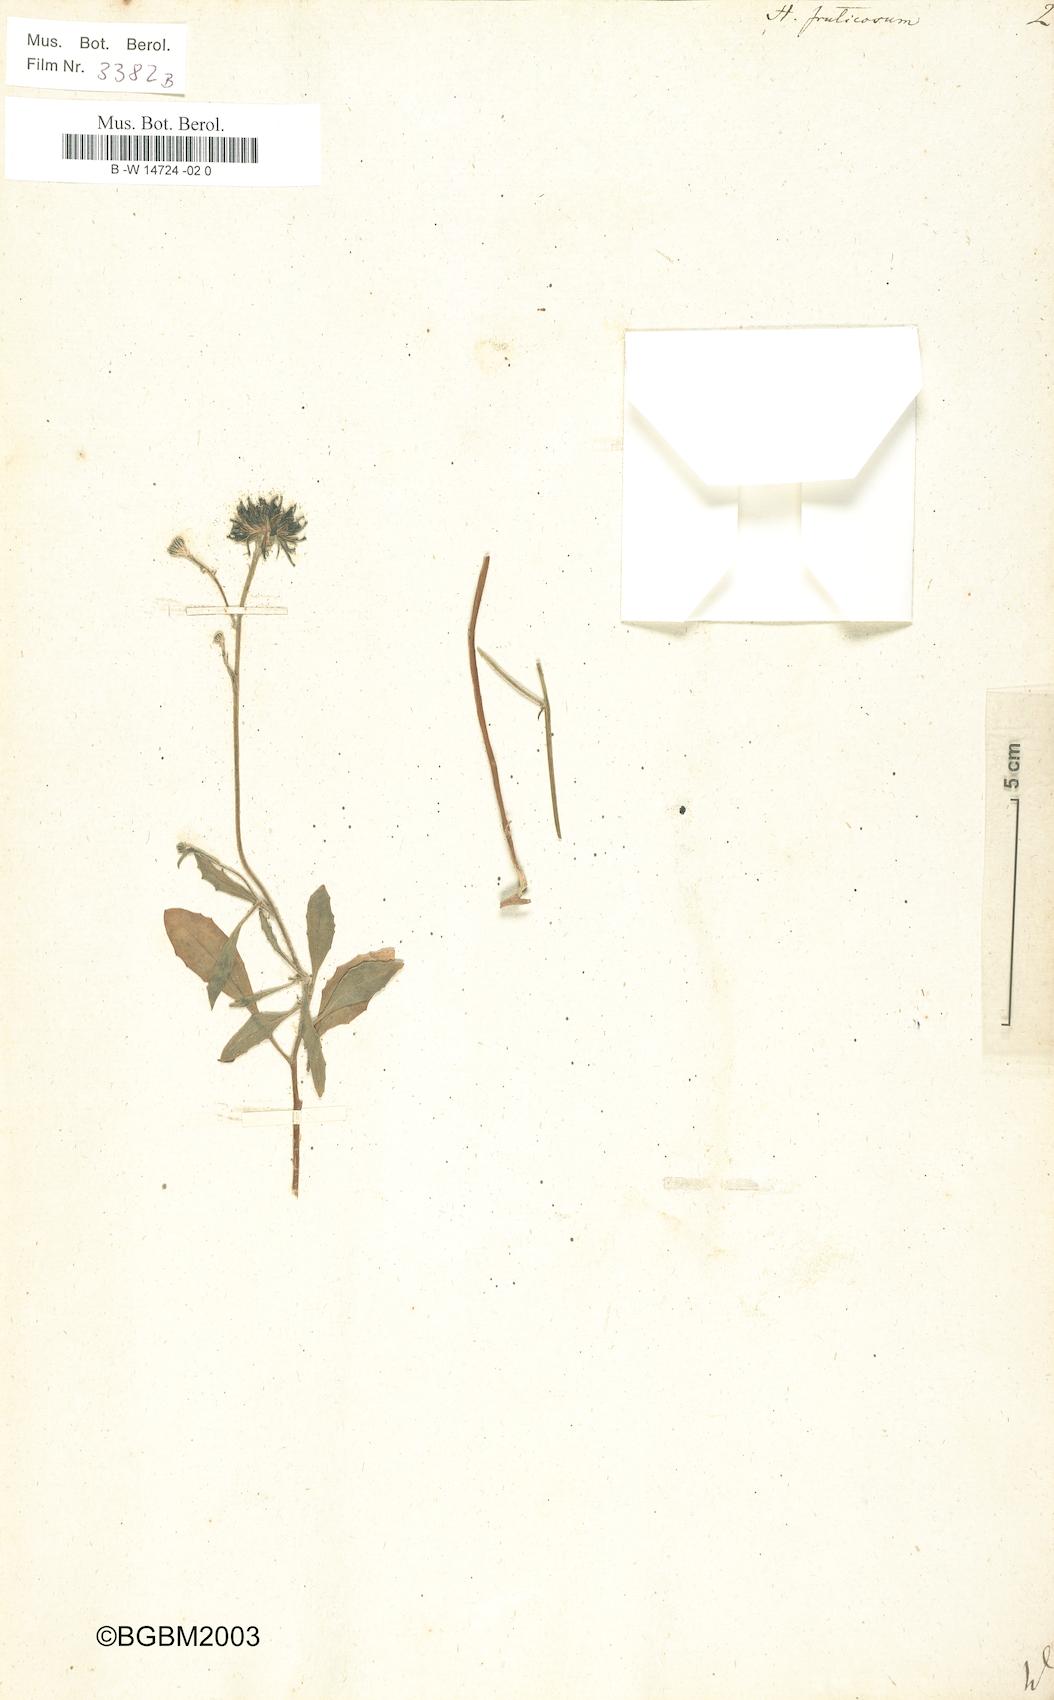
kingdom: Plantae
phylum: Tracheophyta
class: Magnoliopsida
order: Asterales
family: Asteraceae
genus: Tolpis
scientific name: Tolpis succulenta
